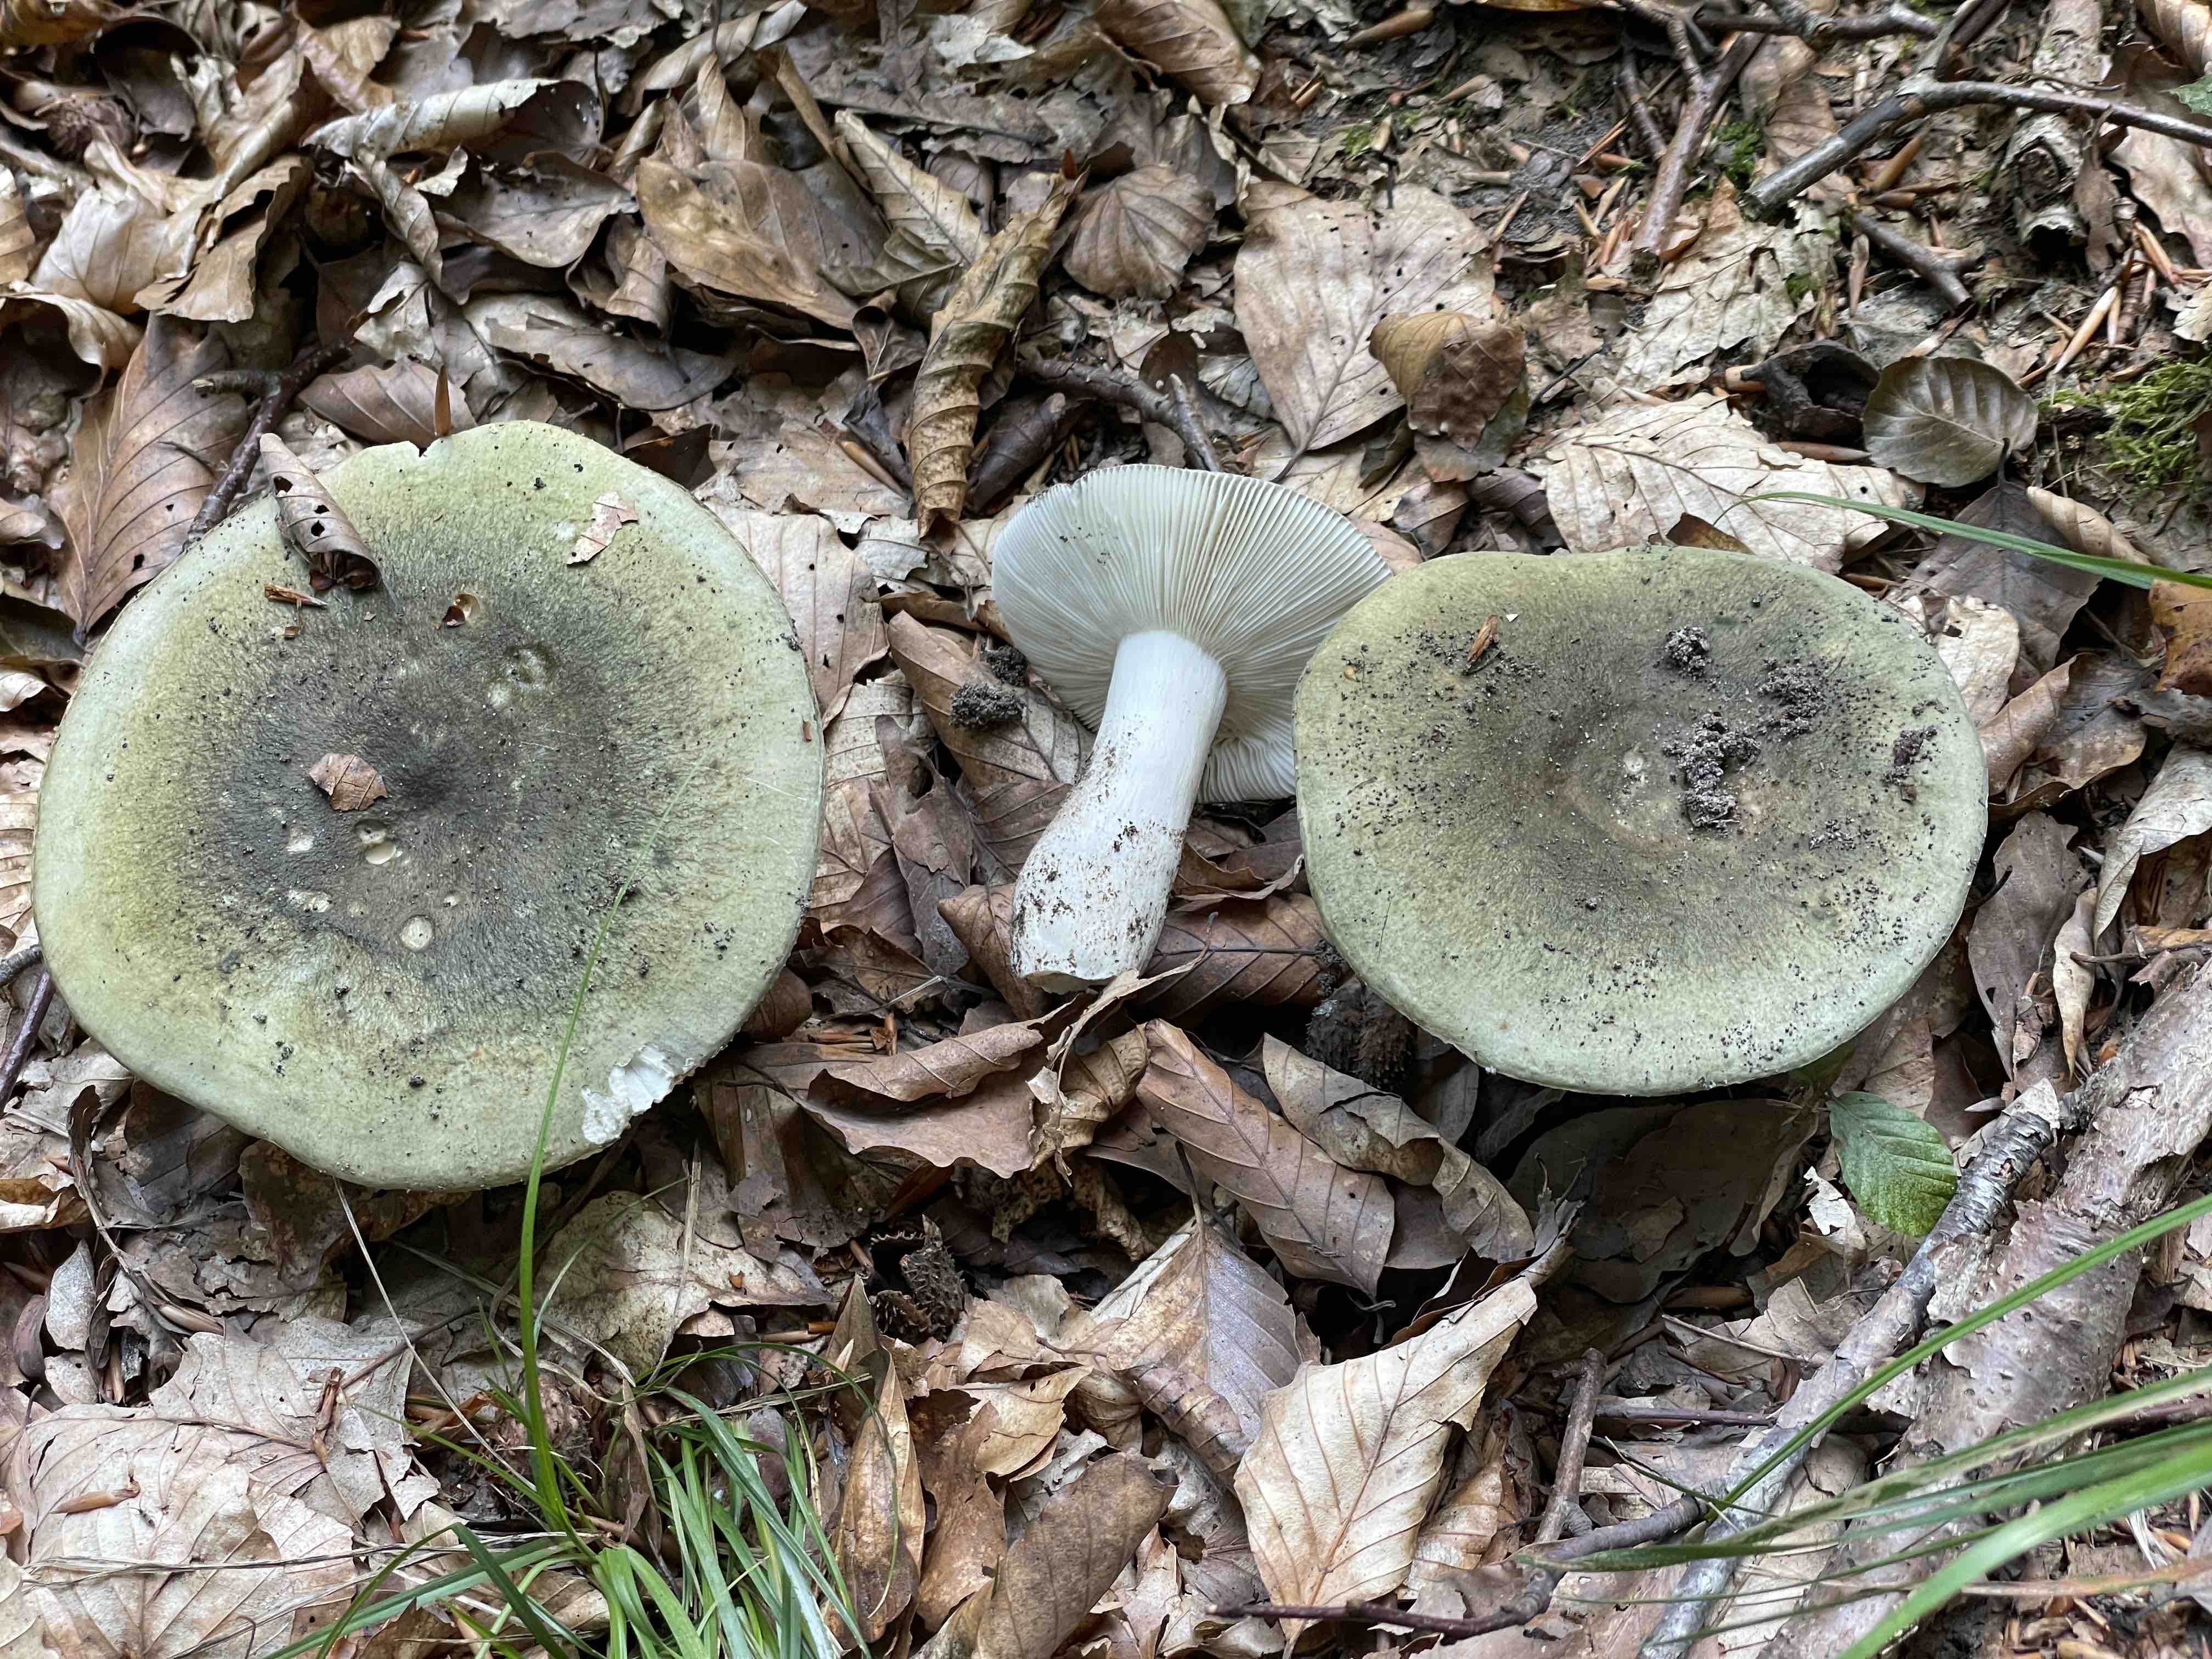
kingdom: Fungi
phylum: Basidiomycota
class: Agaricomycetes
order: Russulales
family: Russulaceae
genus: Russula
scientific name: Russula heterophylla
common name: gaffelbladet skørhat
